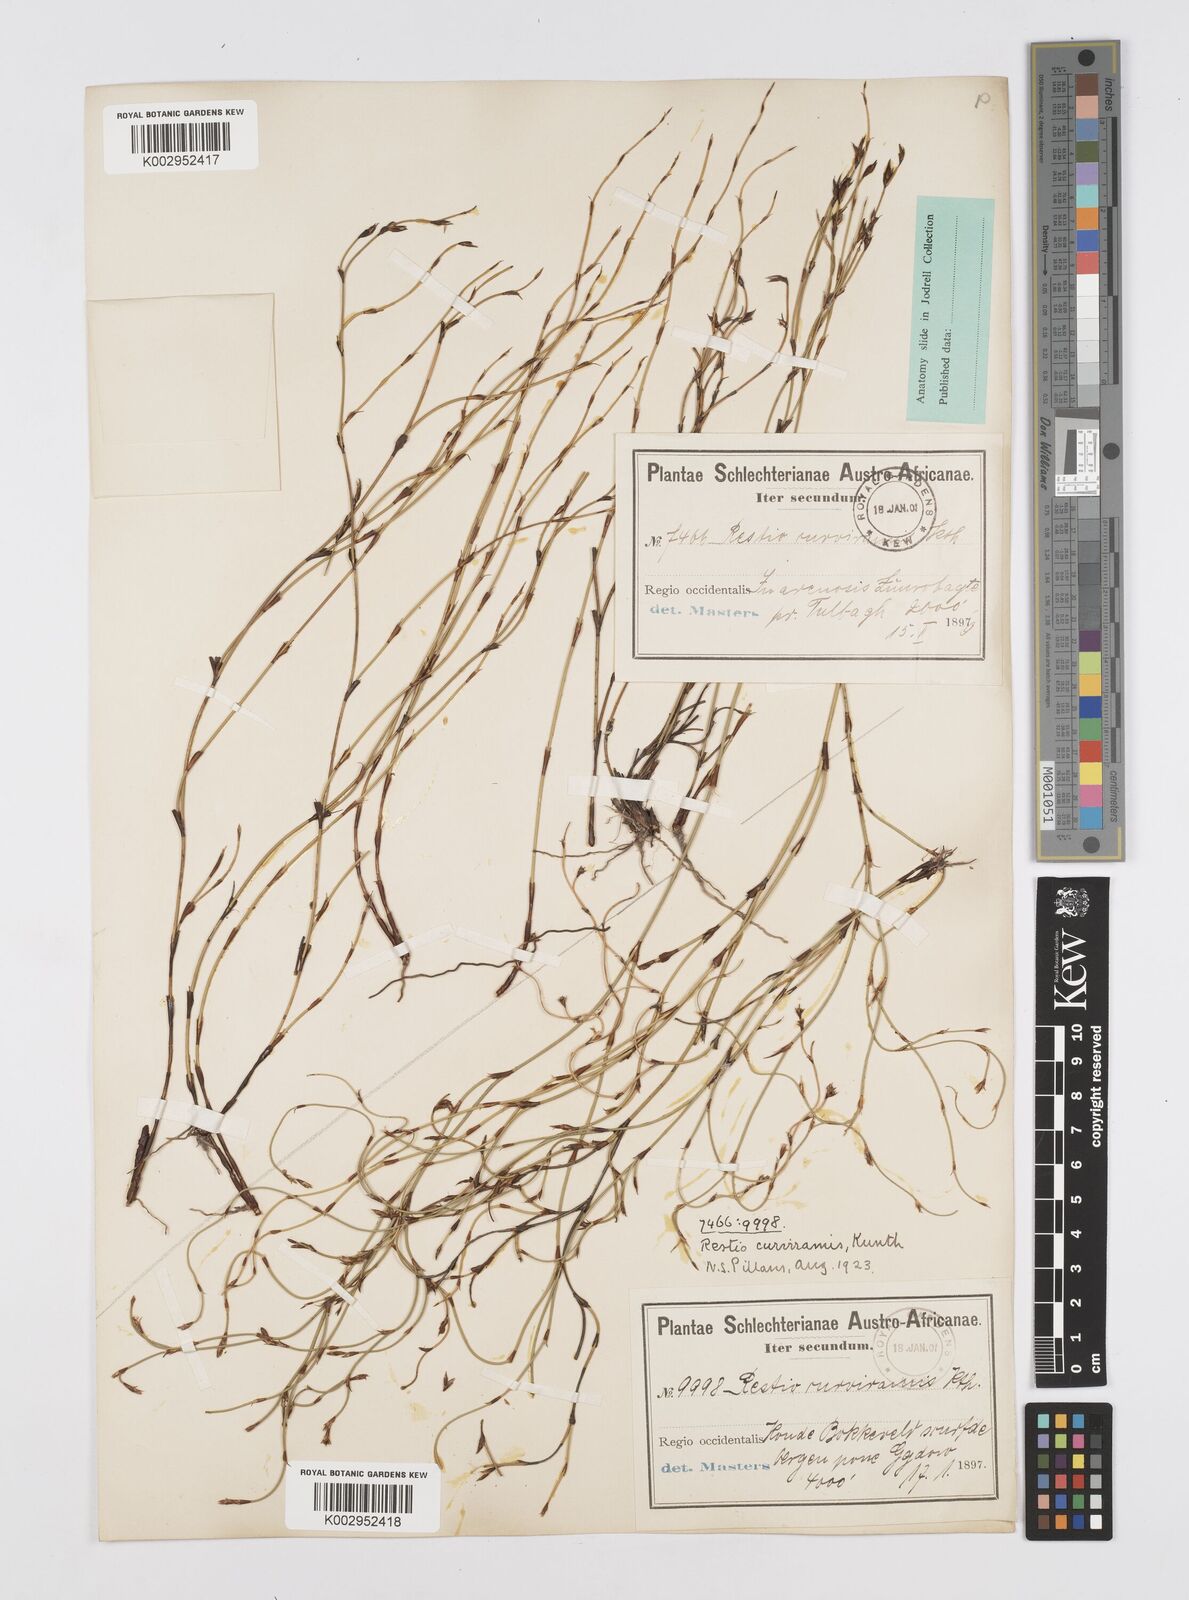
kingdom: Plantae
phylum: Tracheophyta
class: Liliopsida
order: Poales
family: Restionaceae
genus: Restio
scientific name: Restio curviramis
